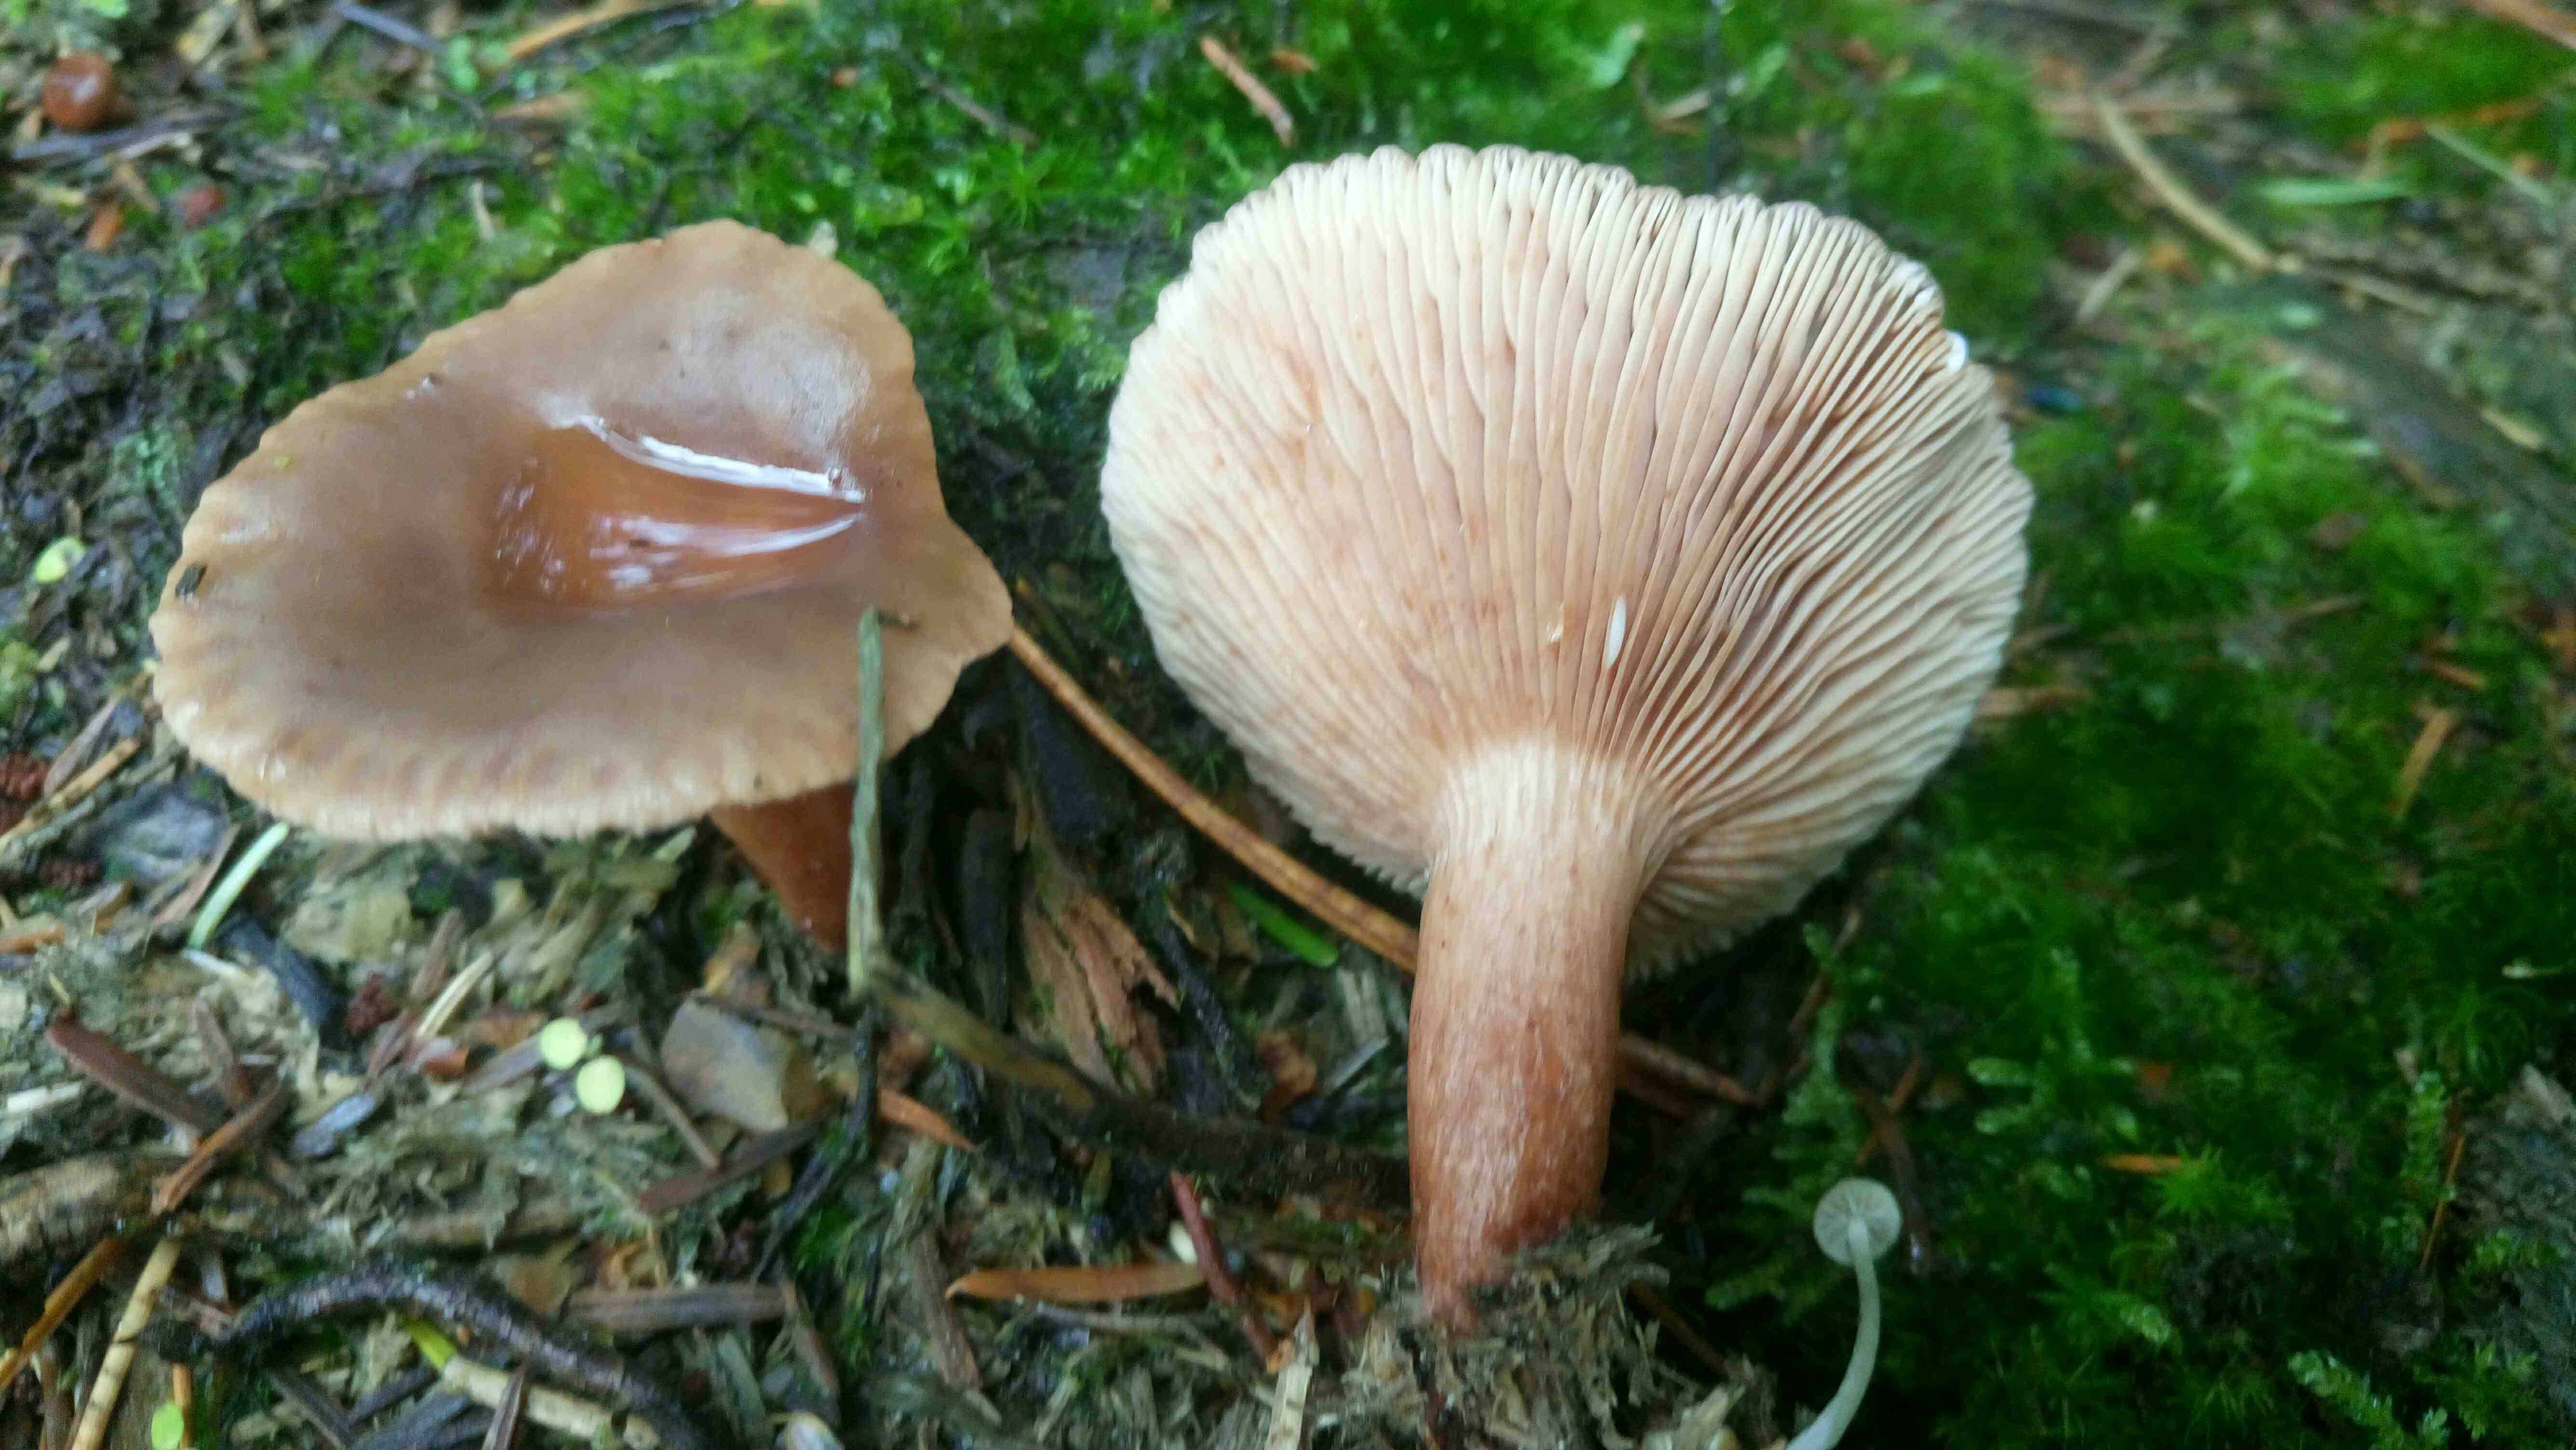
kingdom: Fungi
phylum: Basidiomycota
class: Agaricomycetes
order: Russulales
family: Russulaceae
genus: Lactarius
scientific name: Lactarius hepaticus
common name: leverbrun mælkehat
